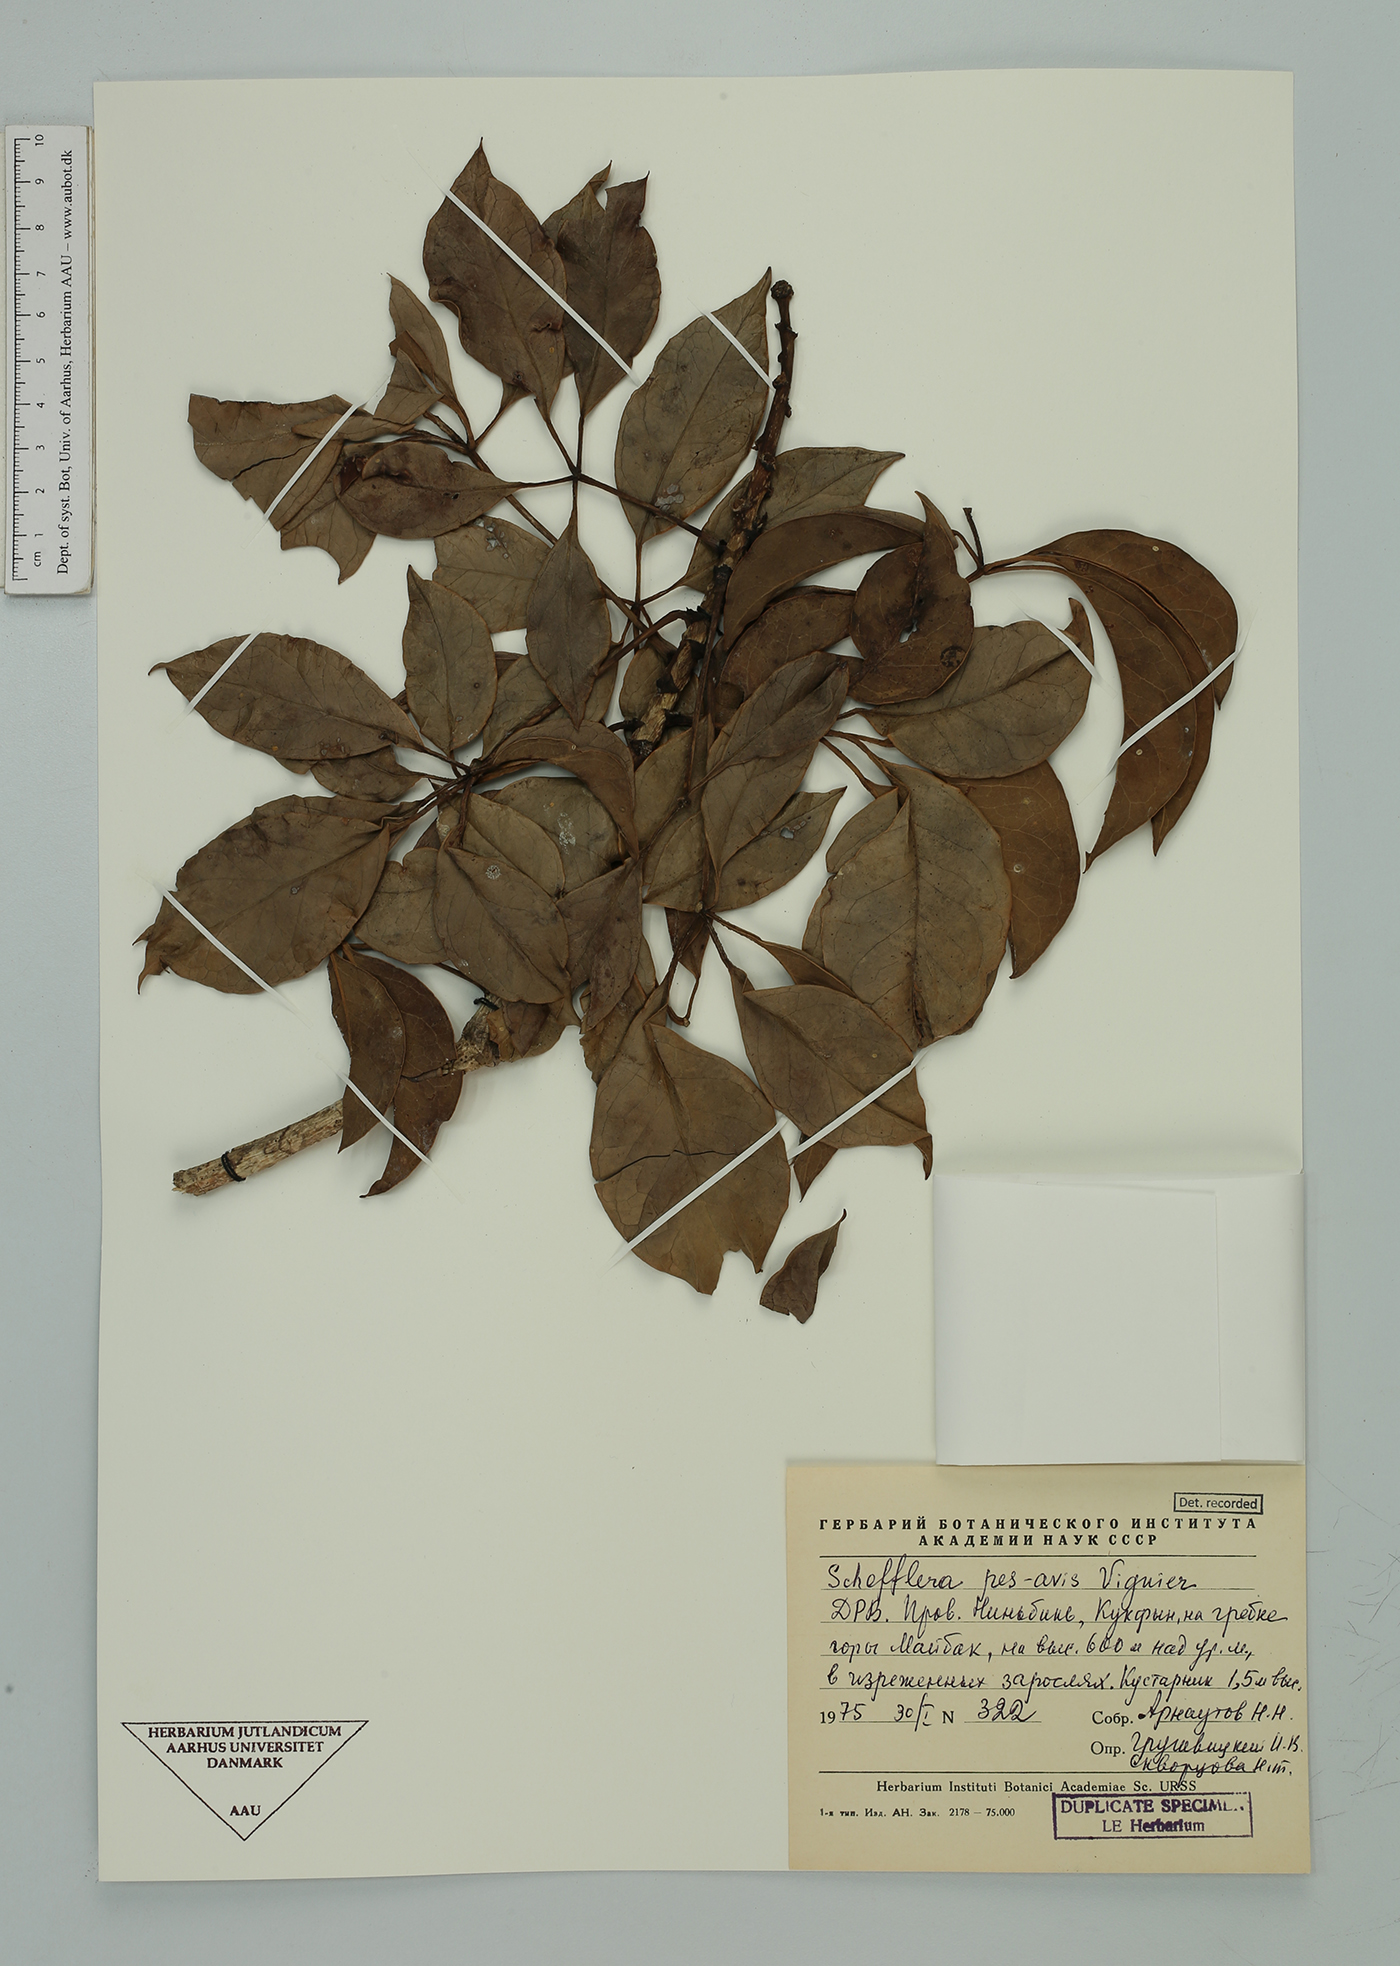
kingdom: Plantae
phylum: Tracheophyta
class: Magnoliopsida
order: Apiales
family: Araliaceae
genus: Heptapleurum
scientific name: Heptapleurum pes-avis
